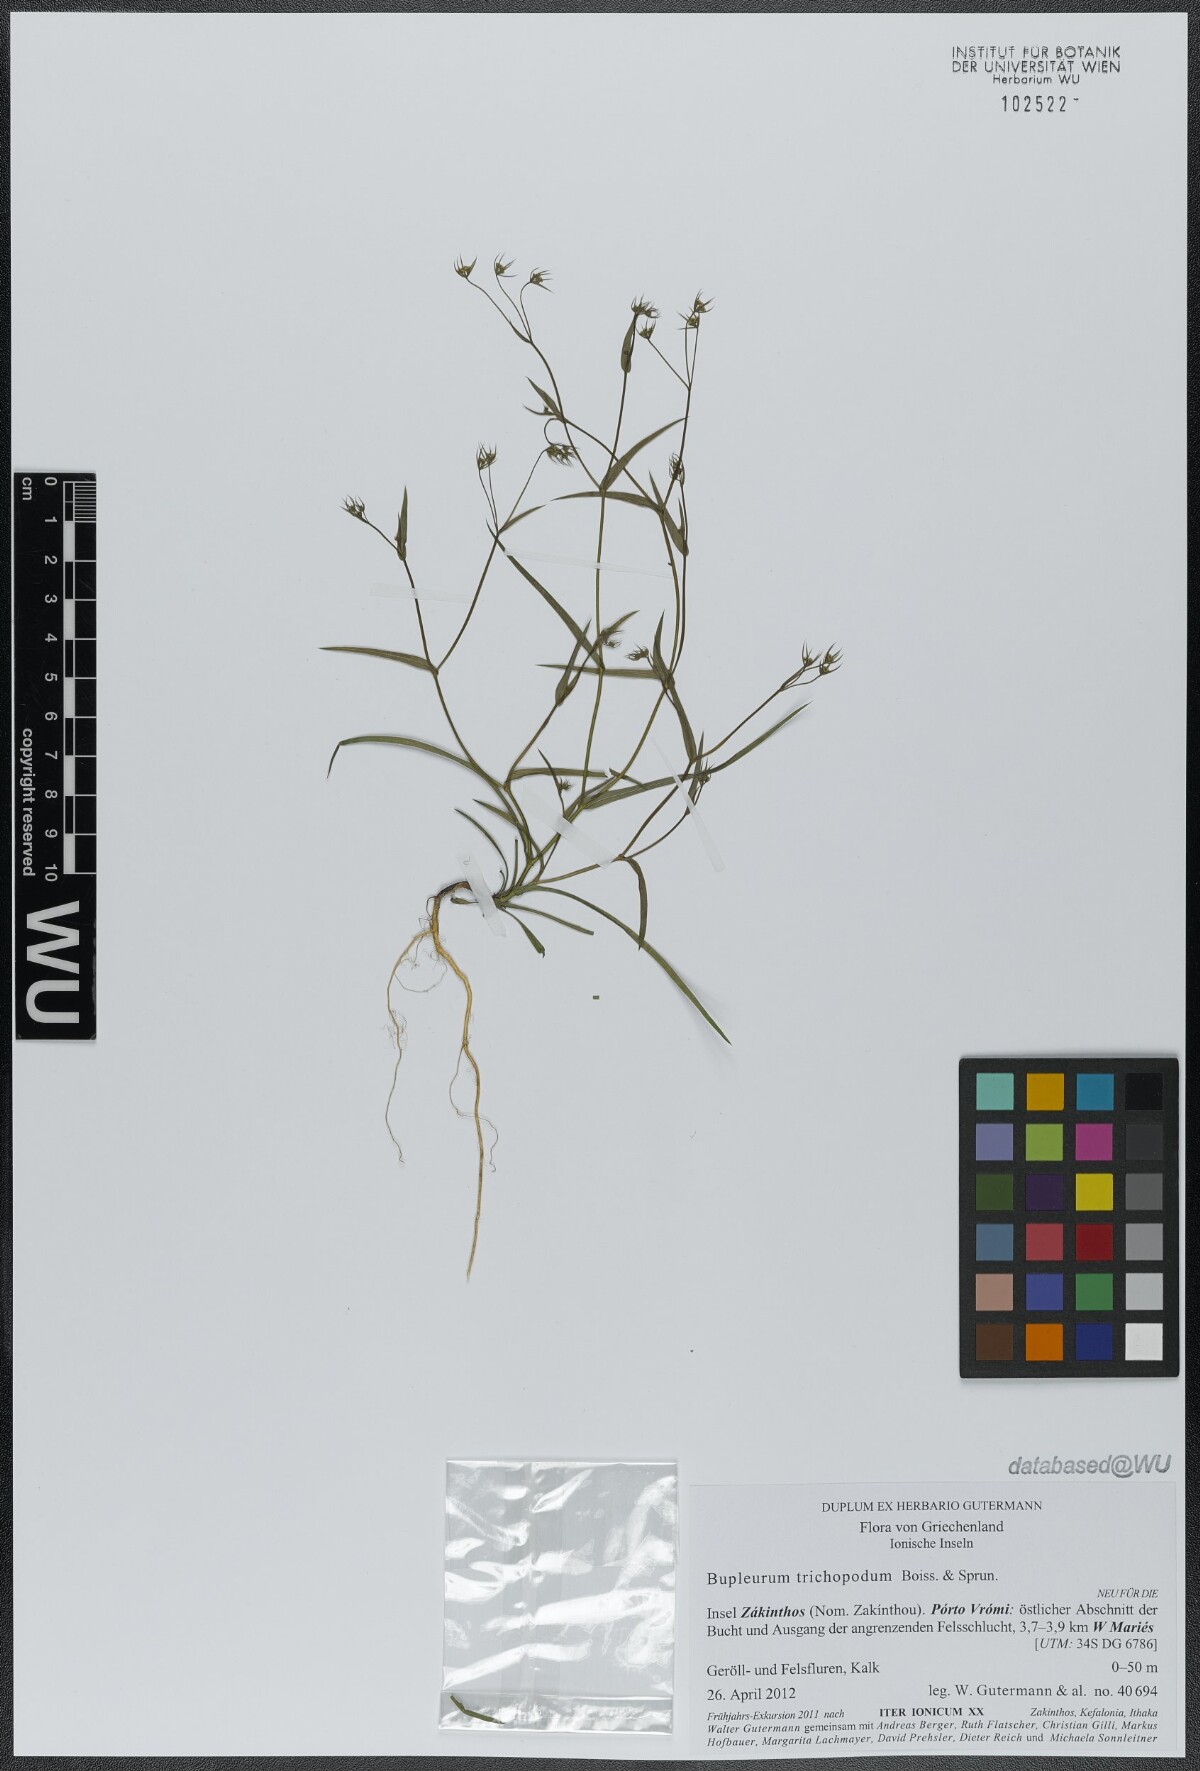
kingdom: Plantae
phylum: Tracheophyta
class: Magnoliopsida
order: Apiales
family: Apiaceae
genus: Bupleurum
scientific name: Bupleurum trichopodum
